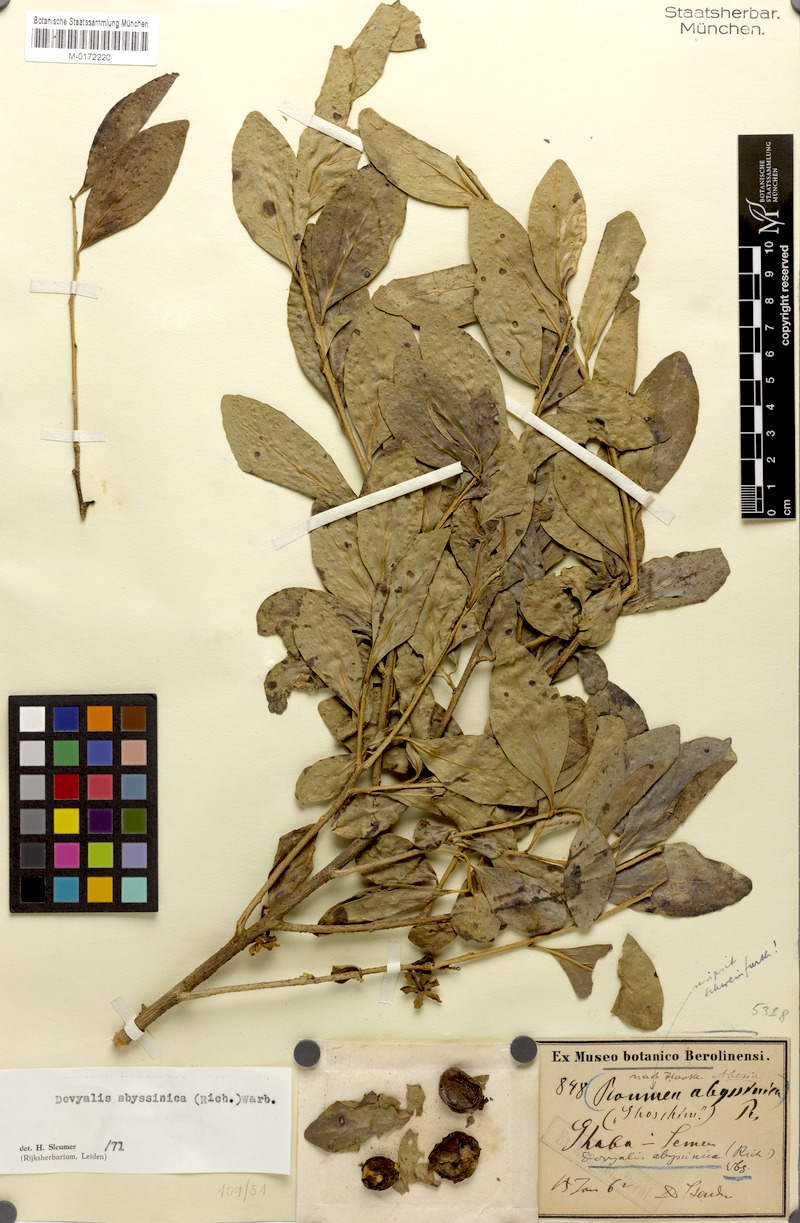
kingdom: Plantae
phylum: Tracheophyta
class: Magnoliopsida
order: Malvales
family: Bixaceae
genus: Roumea
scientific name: Roumea
